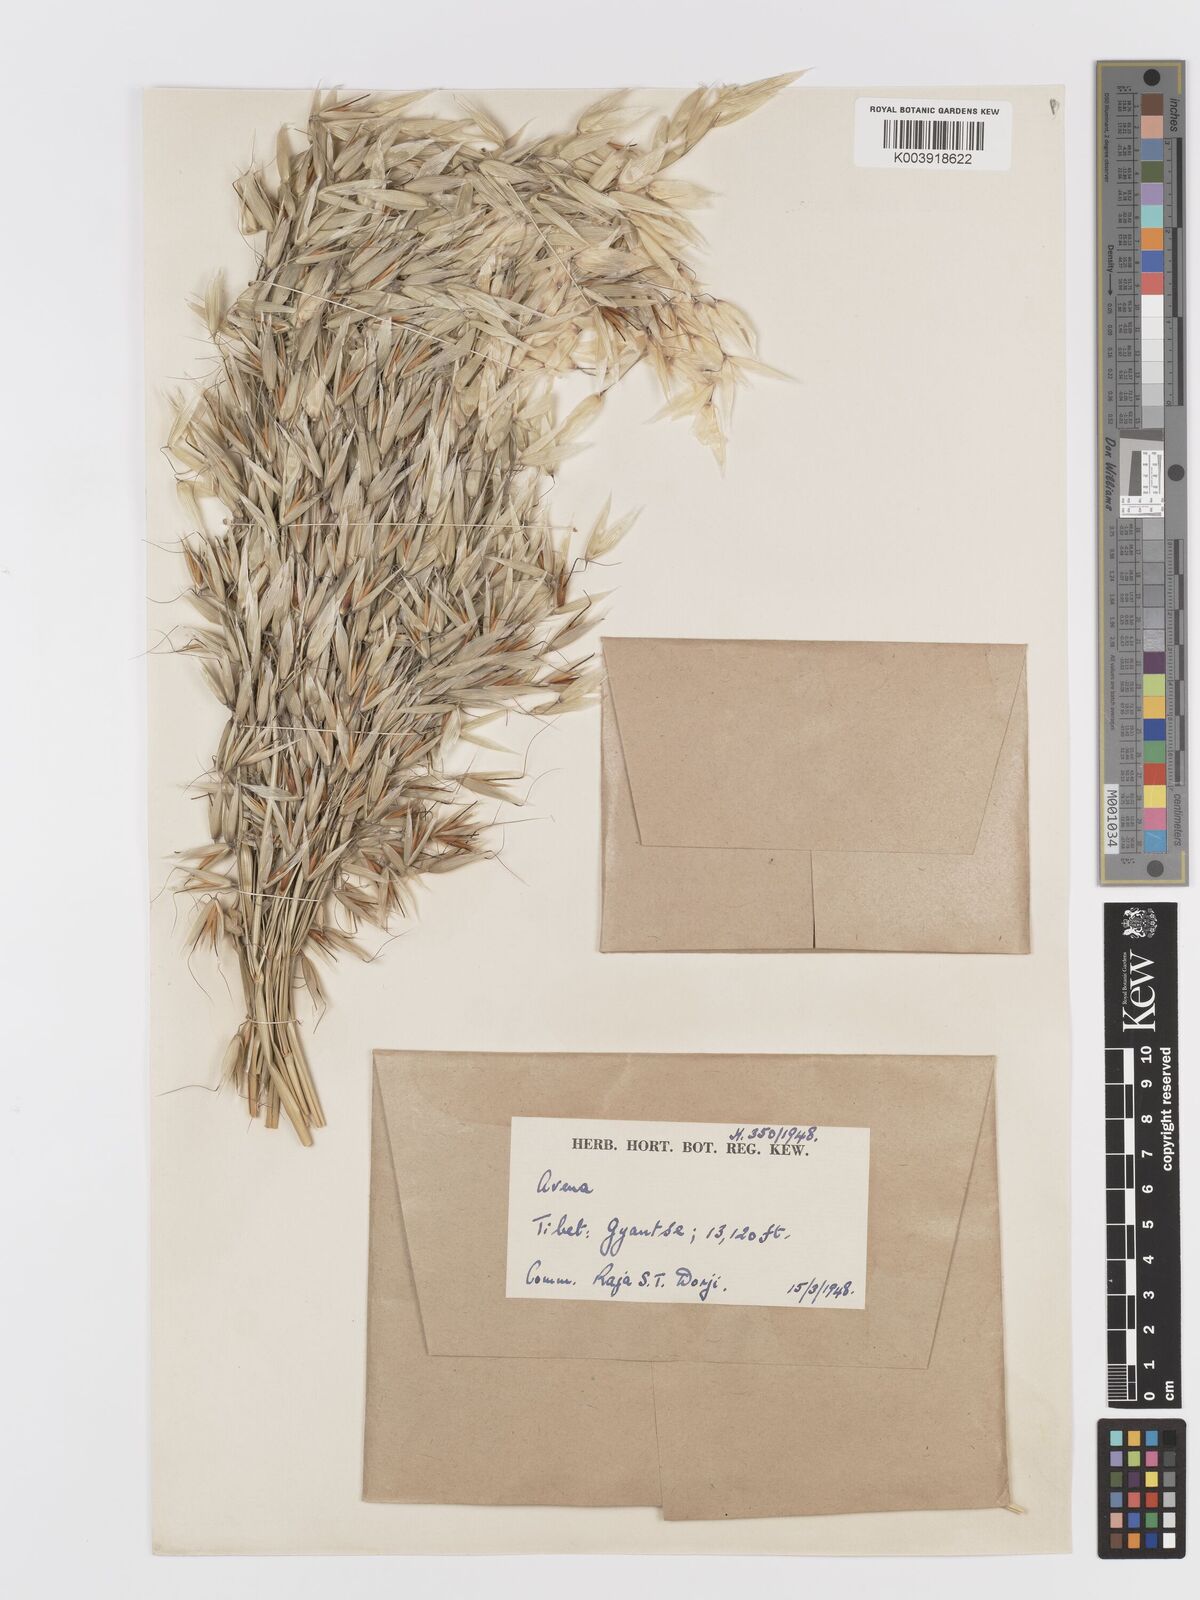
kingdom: Plantae
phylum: Tracheophyta
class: Liliopsida
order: Poales
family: Poaceae
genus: Avena
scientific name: Avena fatua
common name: Wild oat
